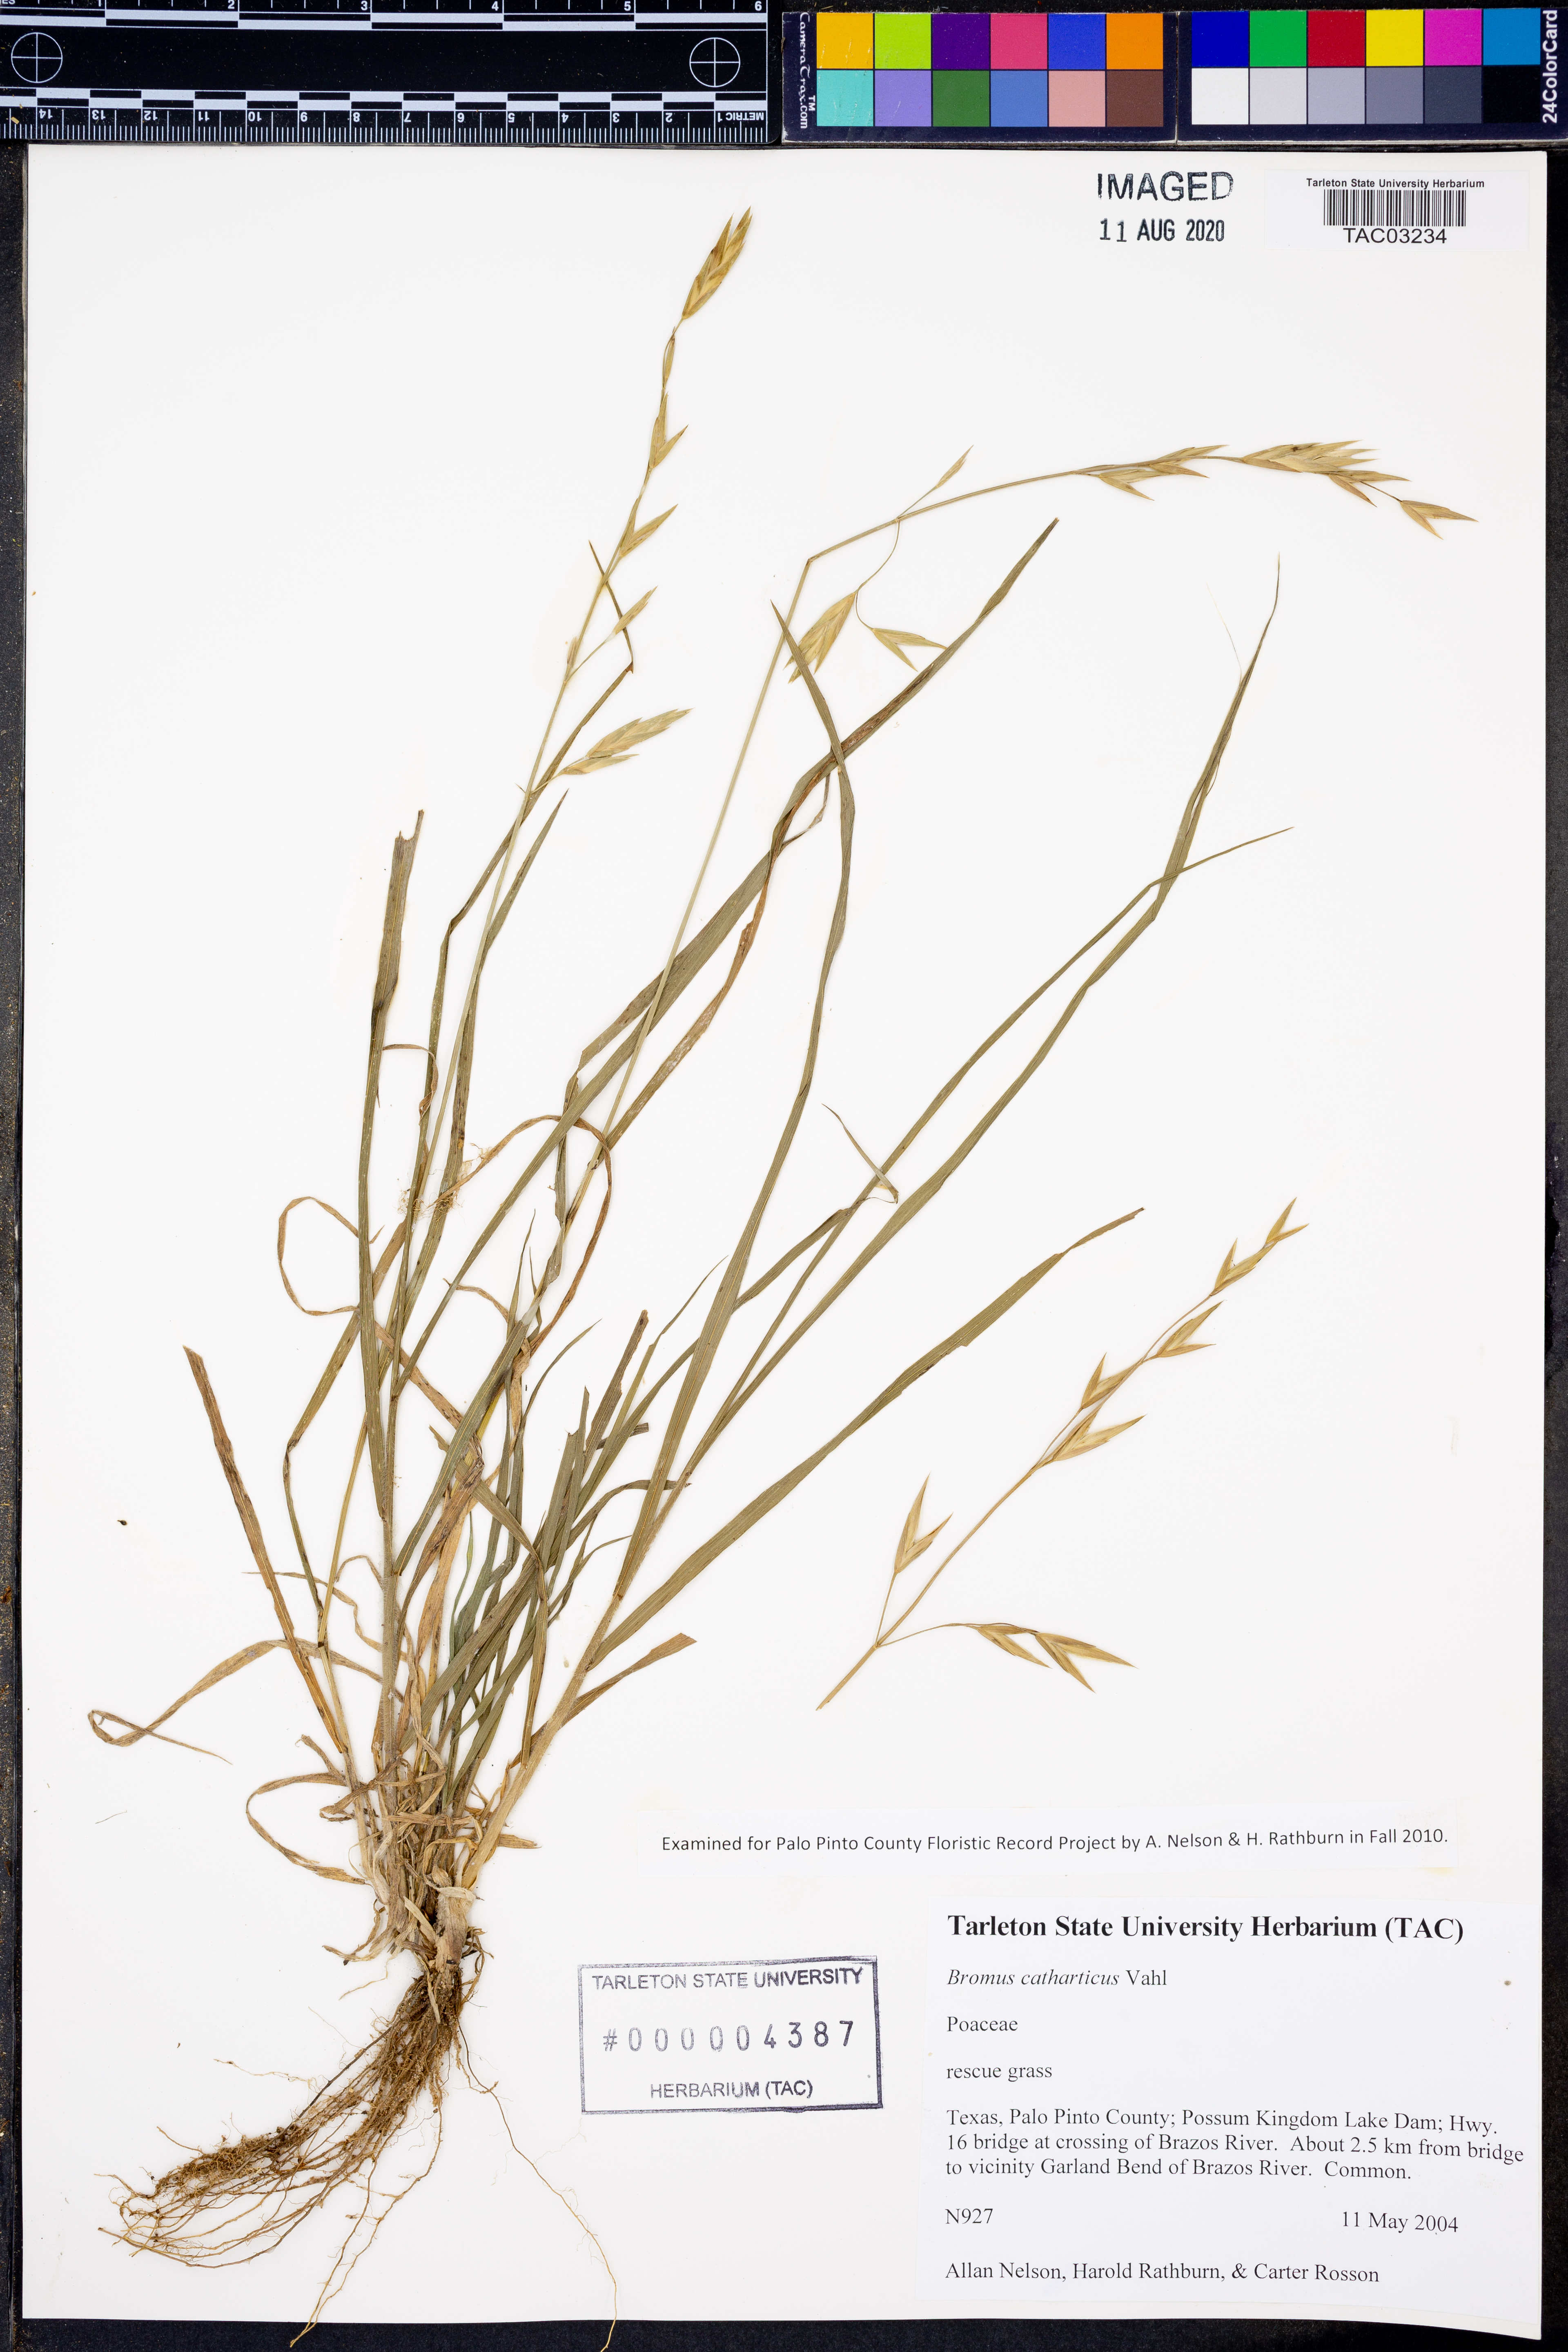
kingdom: Plantae
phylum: Tracheophyta
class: Liliopsida
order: Poales
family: Poaceae
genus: Bromus
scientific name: Bromus catharticus
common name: Rescuegrass
